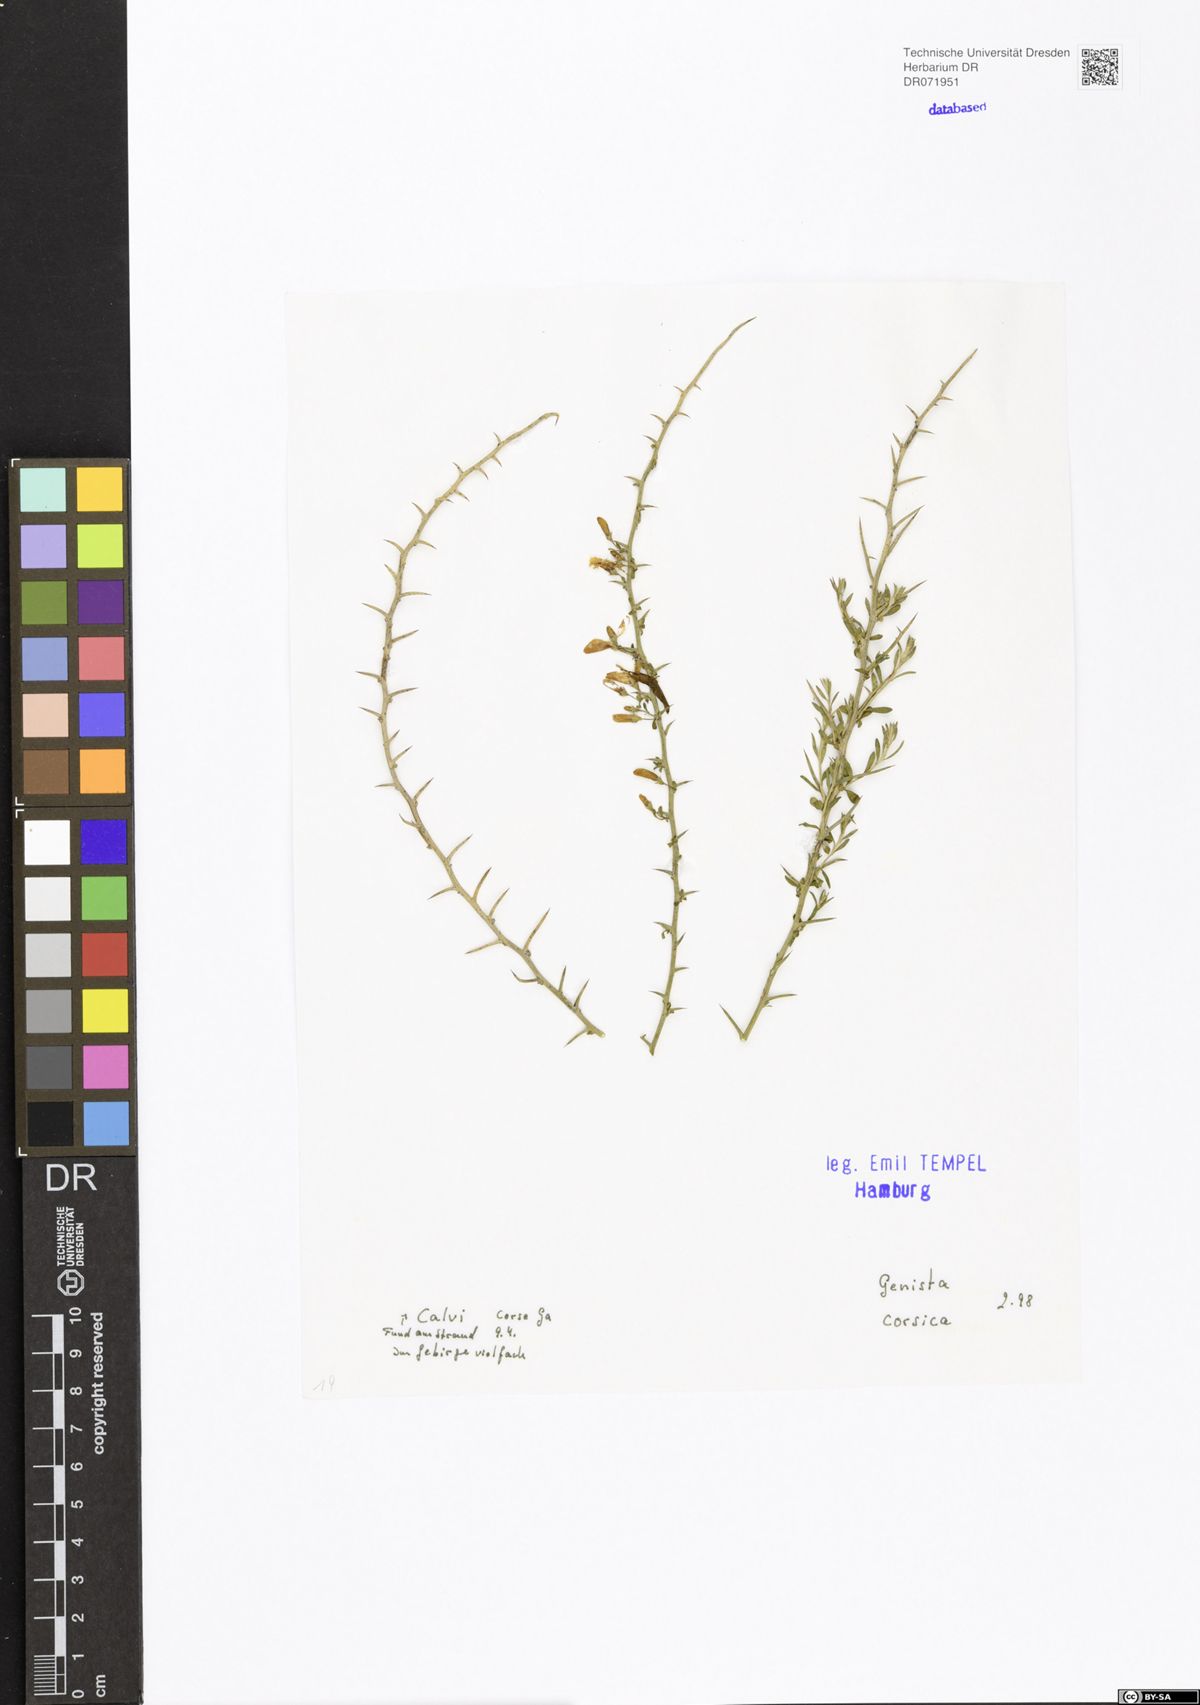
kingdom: Plantae
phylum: Tracheophyta
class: Magnoliopsida
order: Fabales
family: Fabaceae
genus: Genista
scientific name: Genista corsica
